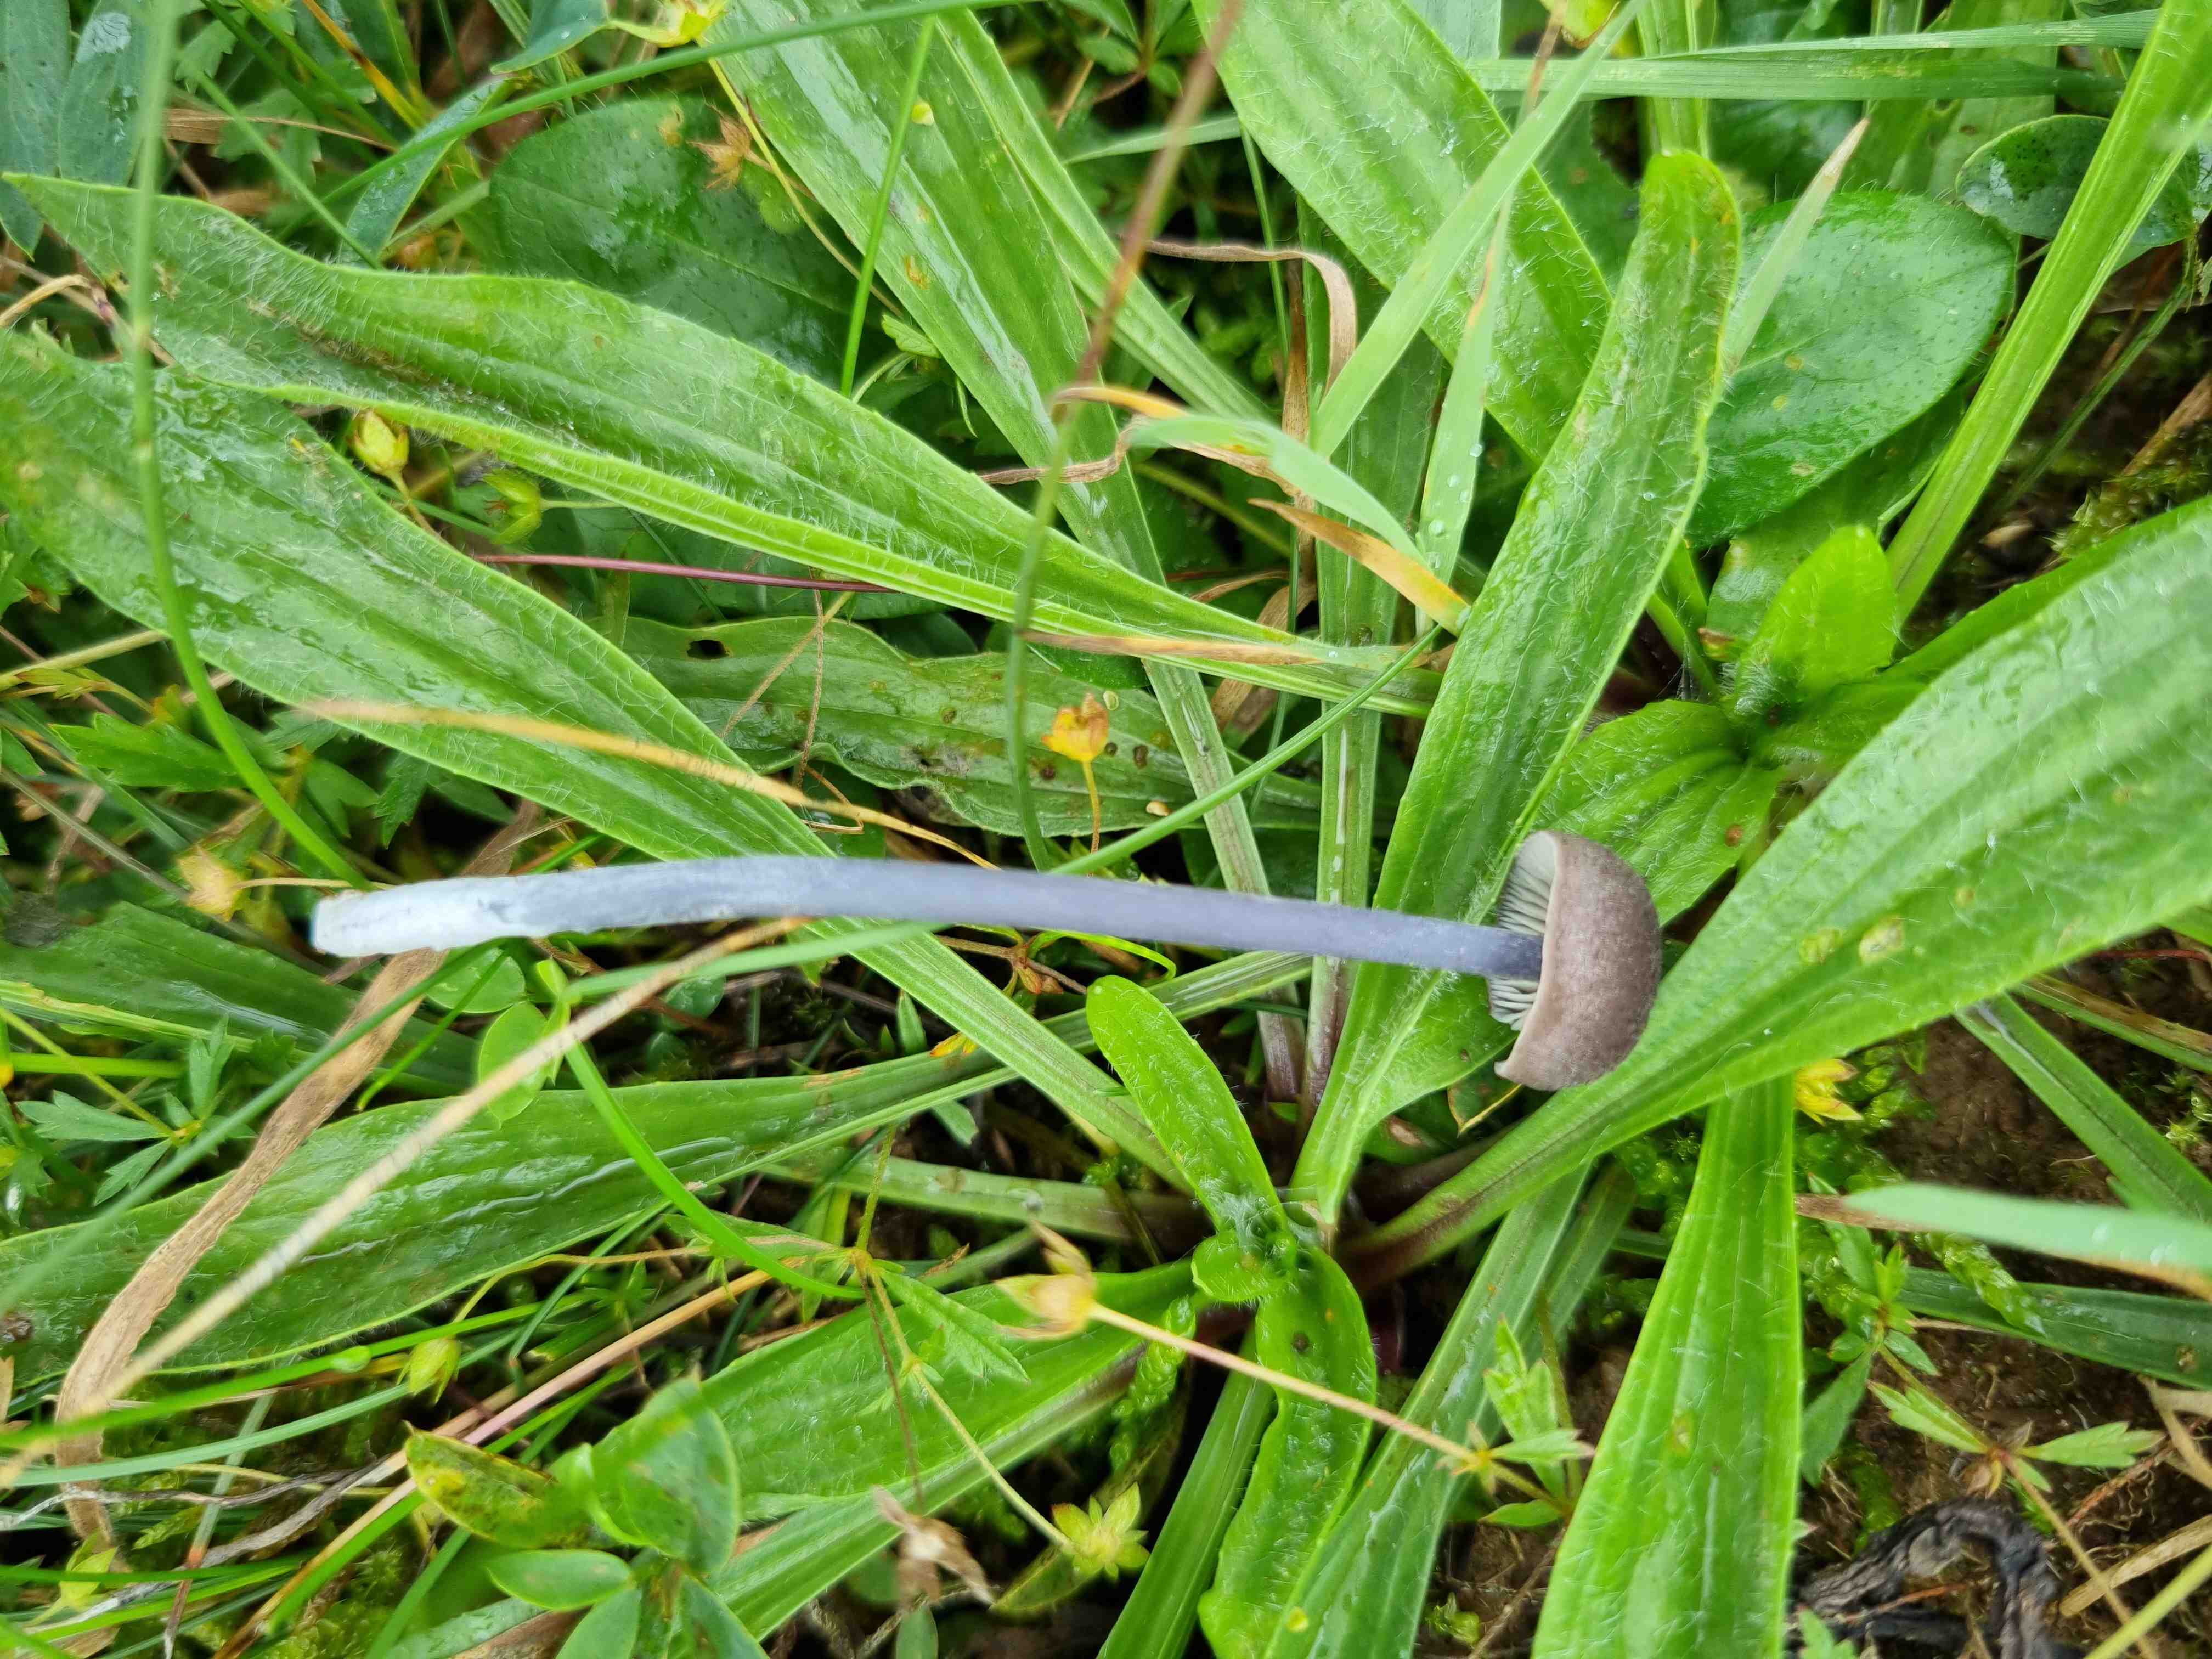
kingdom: Fungi
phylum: Basidiomycota
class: Agaricomycetes
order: Agaricales
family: Entolomataceae
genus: Entoloma
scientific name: Entoloma
